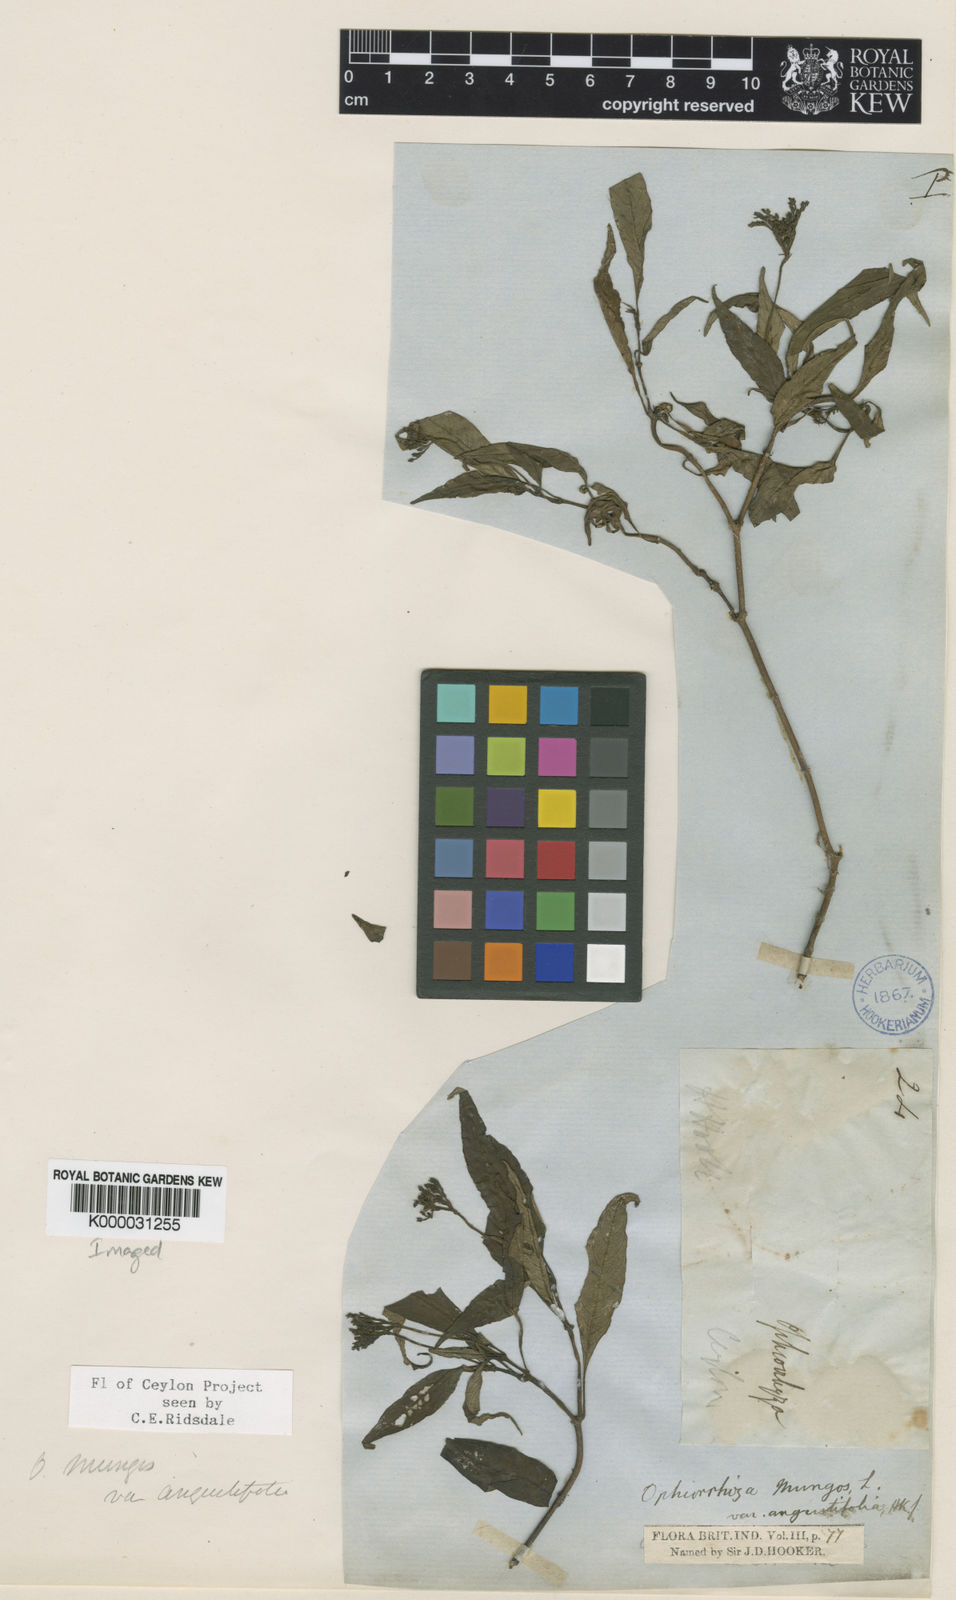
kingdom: Plantae
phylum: Tracheophyta
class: Magnoliopsida
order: Gentianales
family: Rubiaceae
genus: Ophiorrhiza
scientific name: Ophiorrhiza mungos
